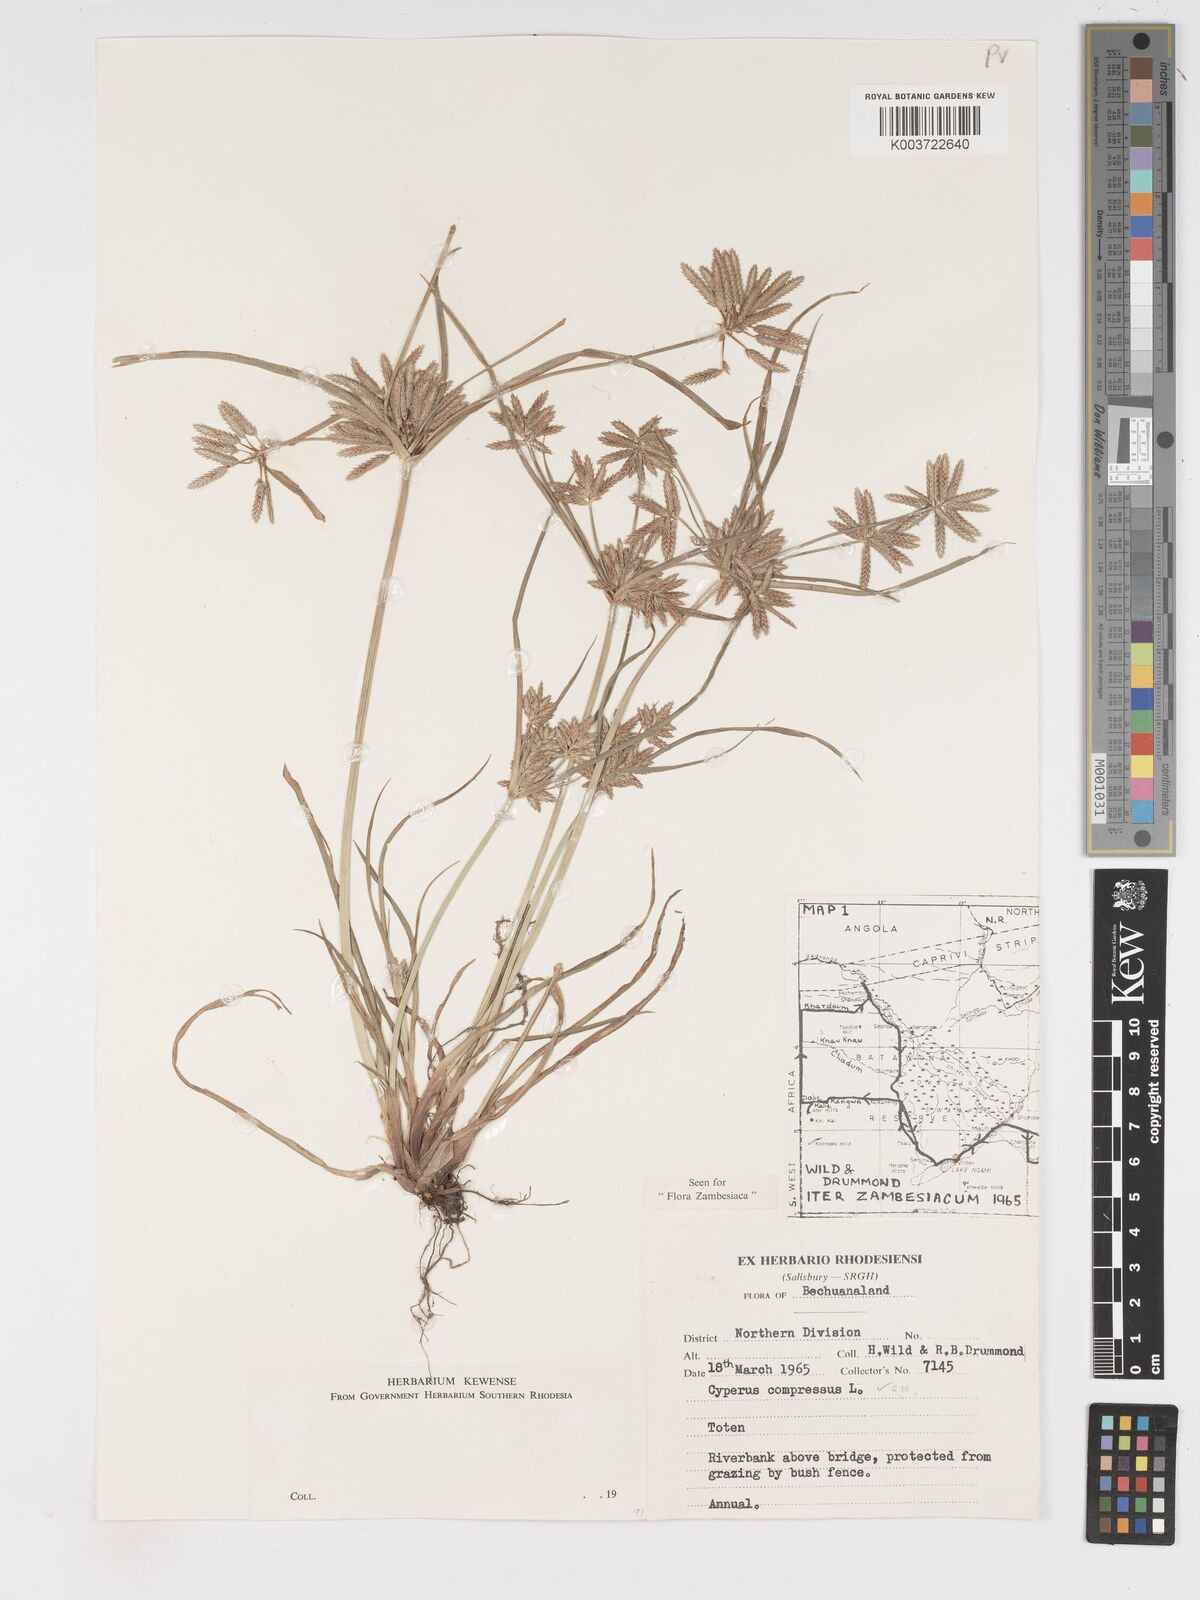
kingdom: Plantae
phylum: Tracheophyta
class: Liliopsida
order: Poales
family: Cyperaceae
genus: Cyperus
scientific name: Cyperus compressus
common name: Poorland flatsedge
